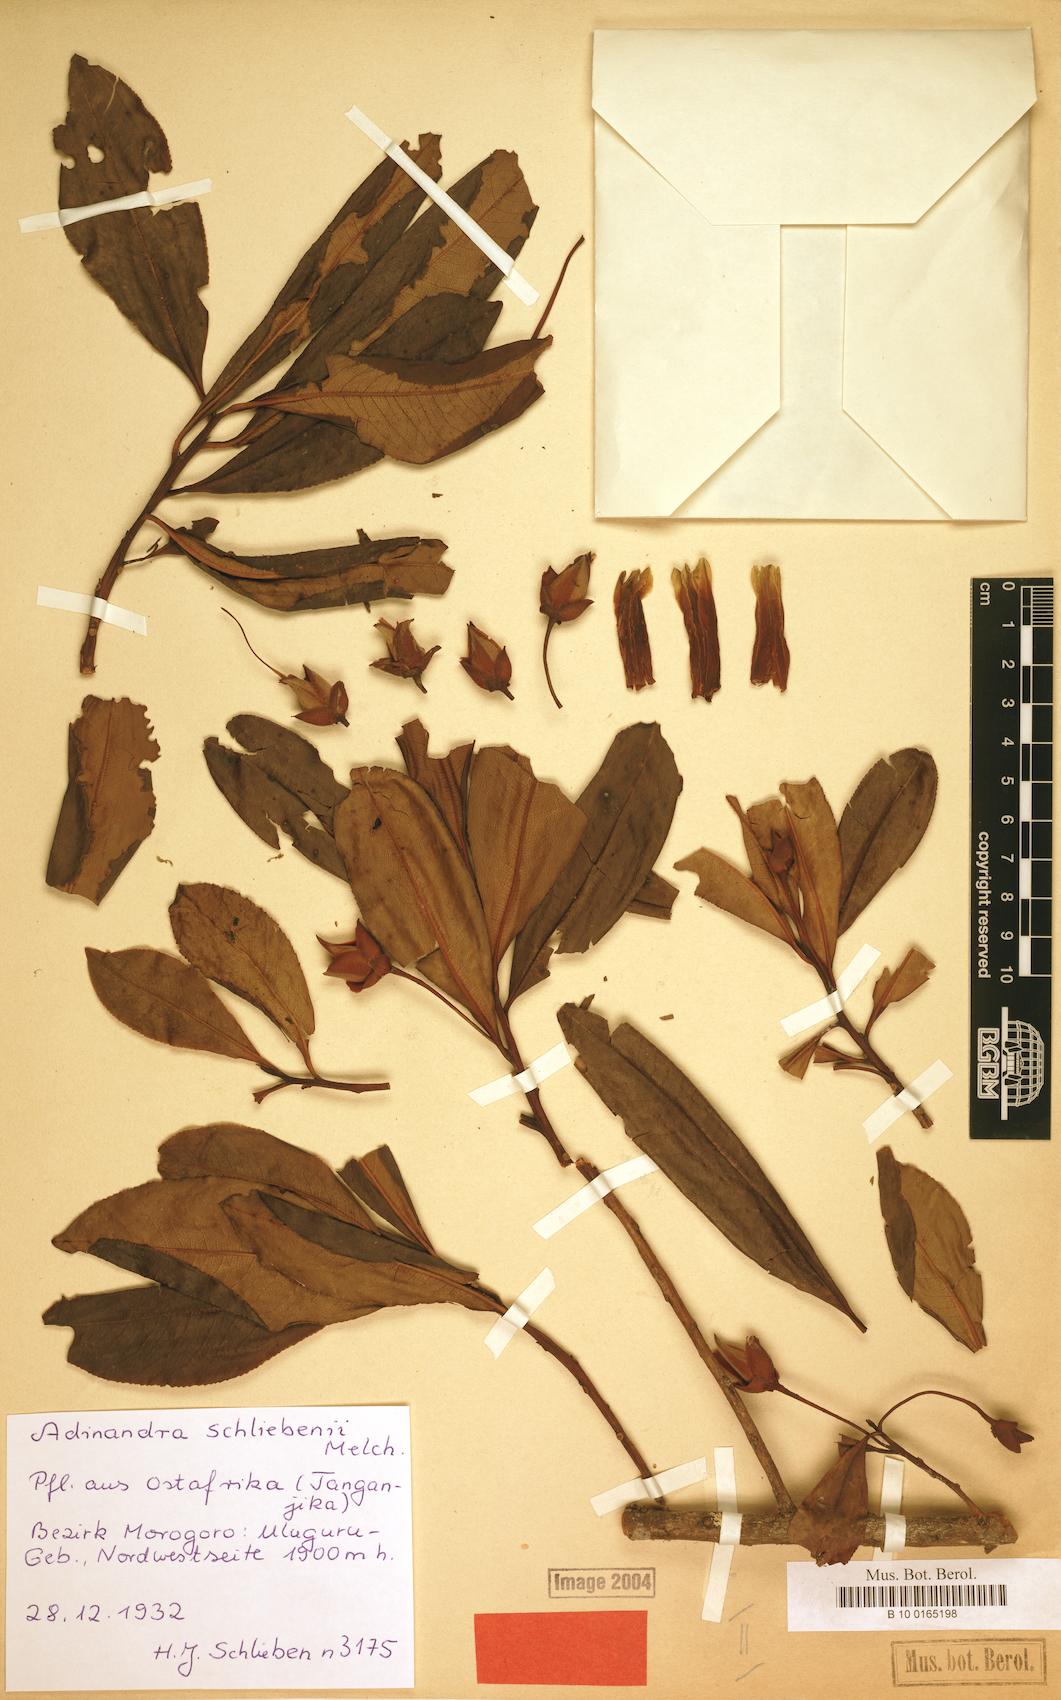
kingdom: Plantae
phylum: Tracheophyta
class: Magnoliopsida
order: Ericales
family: Pentaphylacaceae
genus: Balthasaria
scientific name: Balthasaria schliebenii
